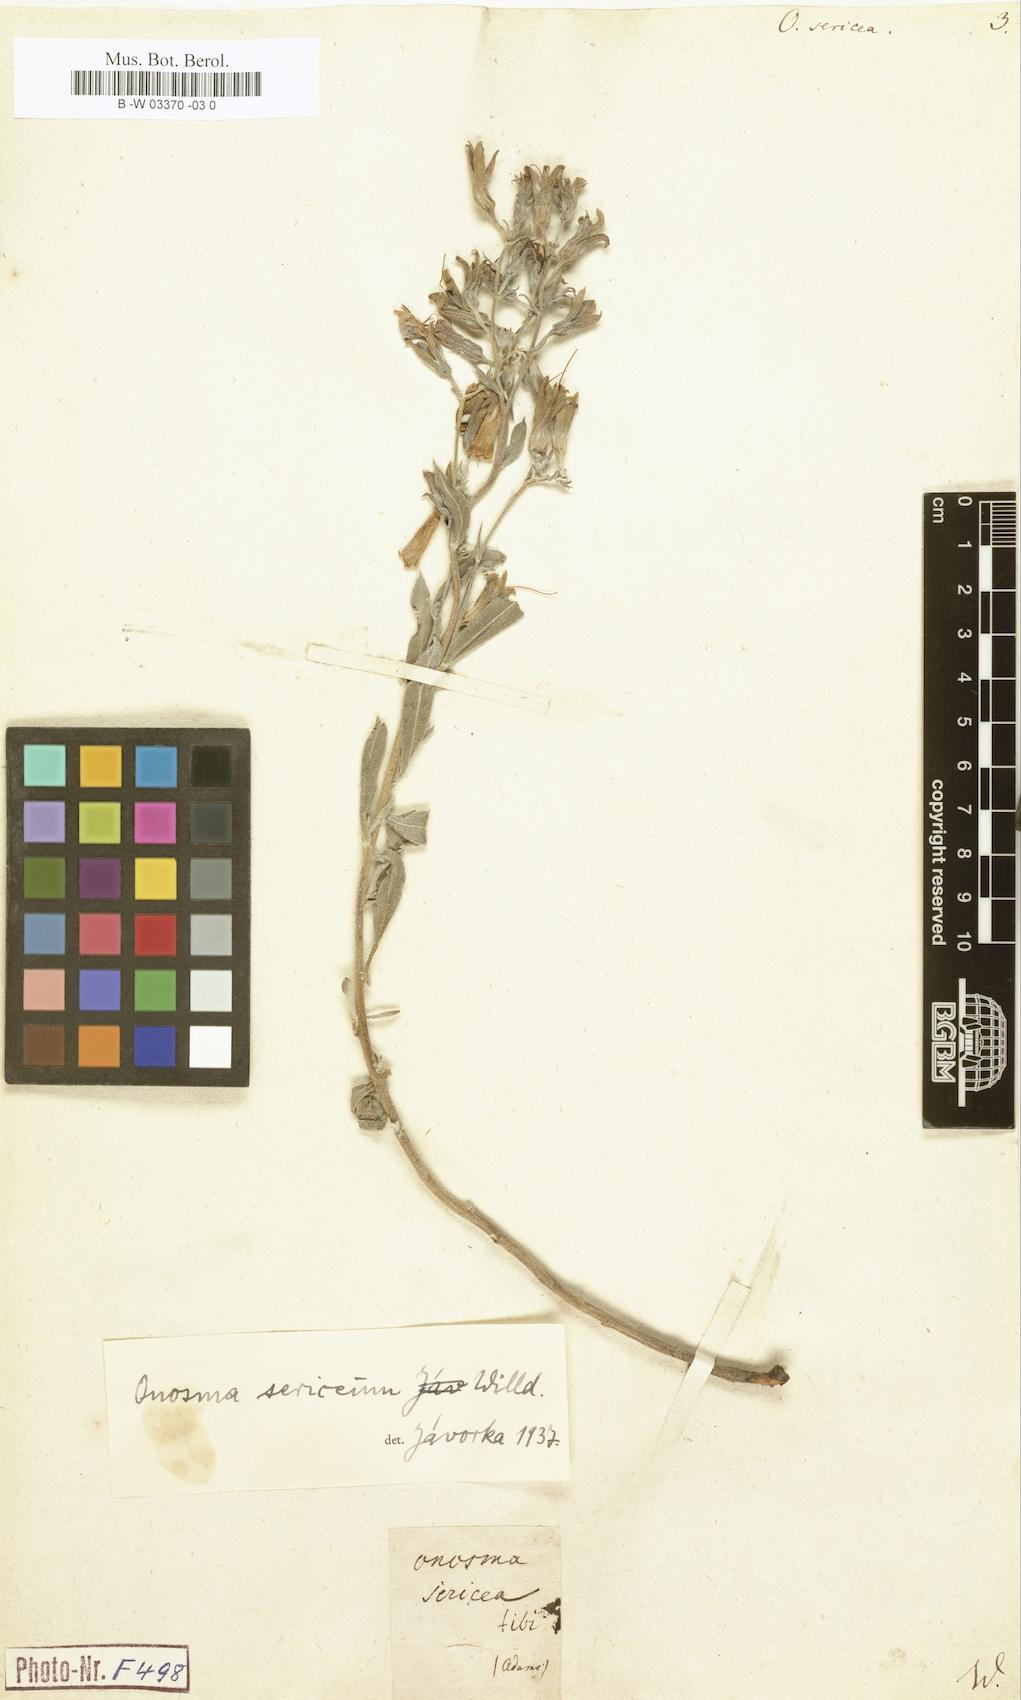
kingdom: Plantae
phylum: Tracheophyta
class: Magnoliopsida
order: Boraginales
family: Boraginaceae
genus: Onosma
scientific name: Onosma sericea
